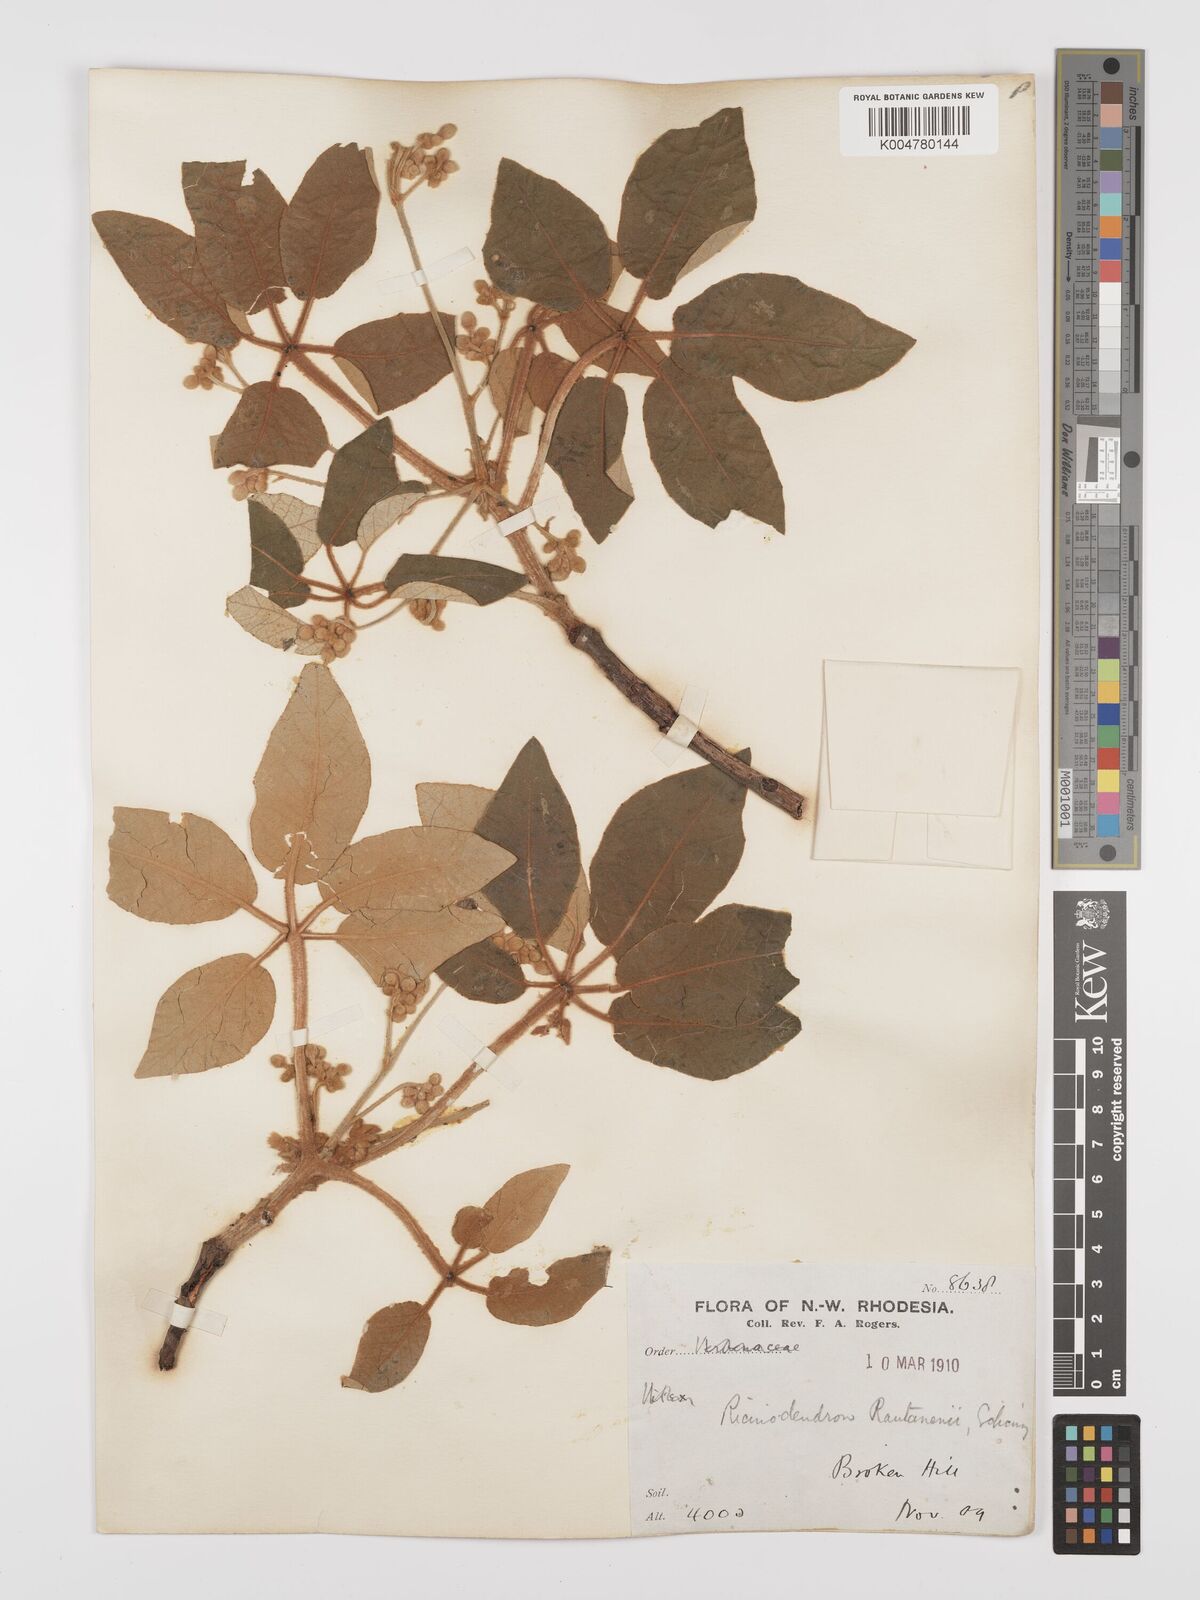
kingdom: Plantae
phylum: Tracheophyta
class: Magnoliopsida
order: Malpighiales
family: Euphorbiaceae
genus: Schinziophyton
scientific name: Schinziophyton rautanenii
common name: Manketti
